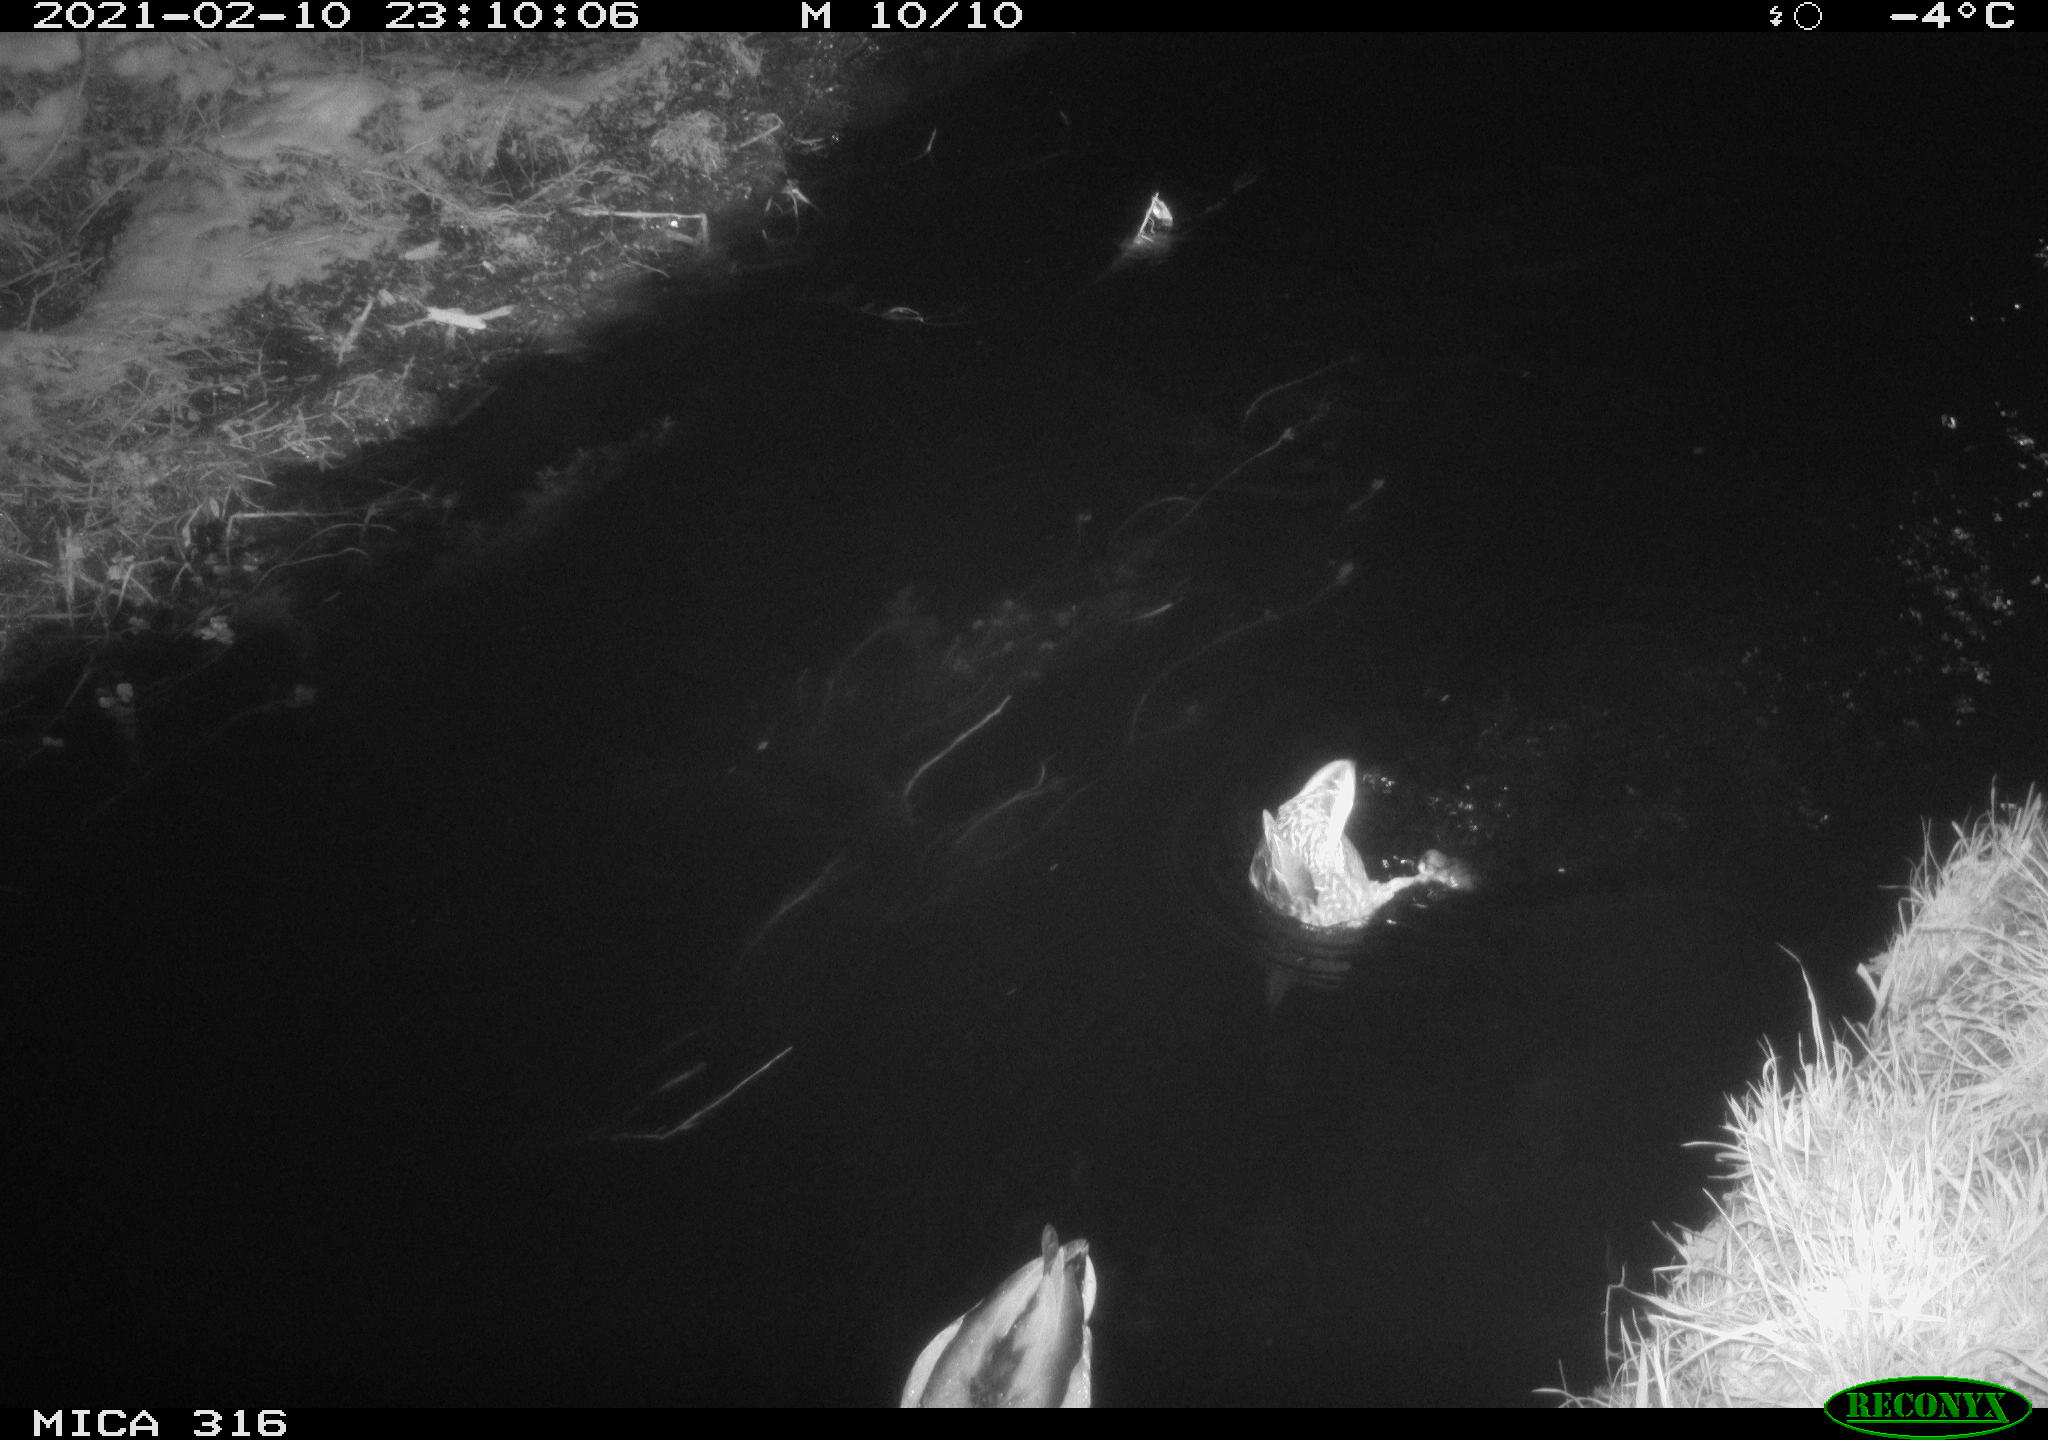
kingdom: Animalia
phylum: Chordata
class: Aves
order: Anseriformes
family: Anatidae
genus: Anas
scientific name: Anas platyrhynchos
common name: Mallard
